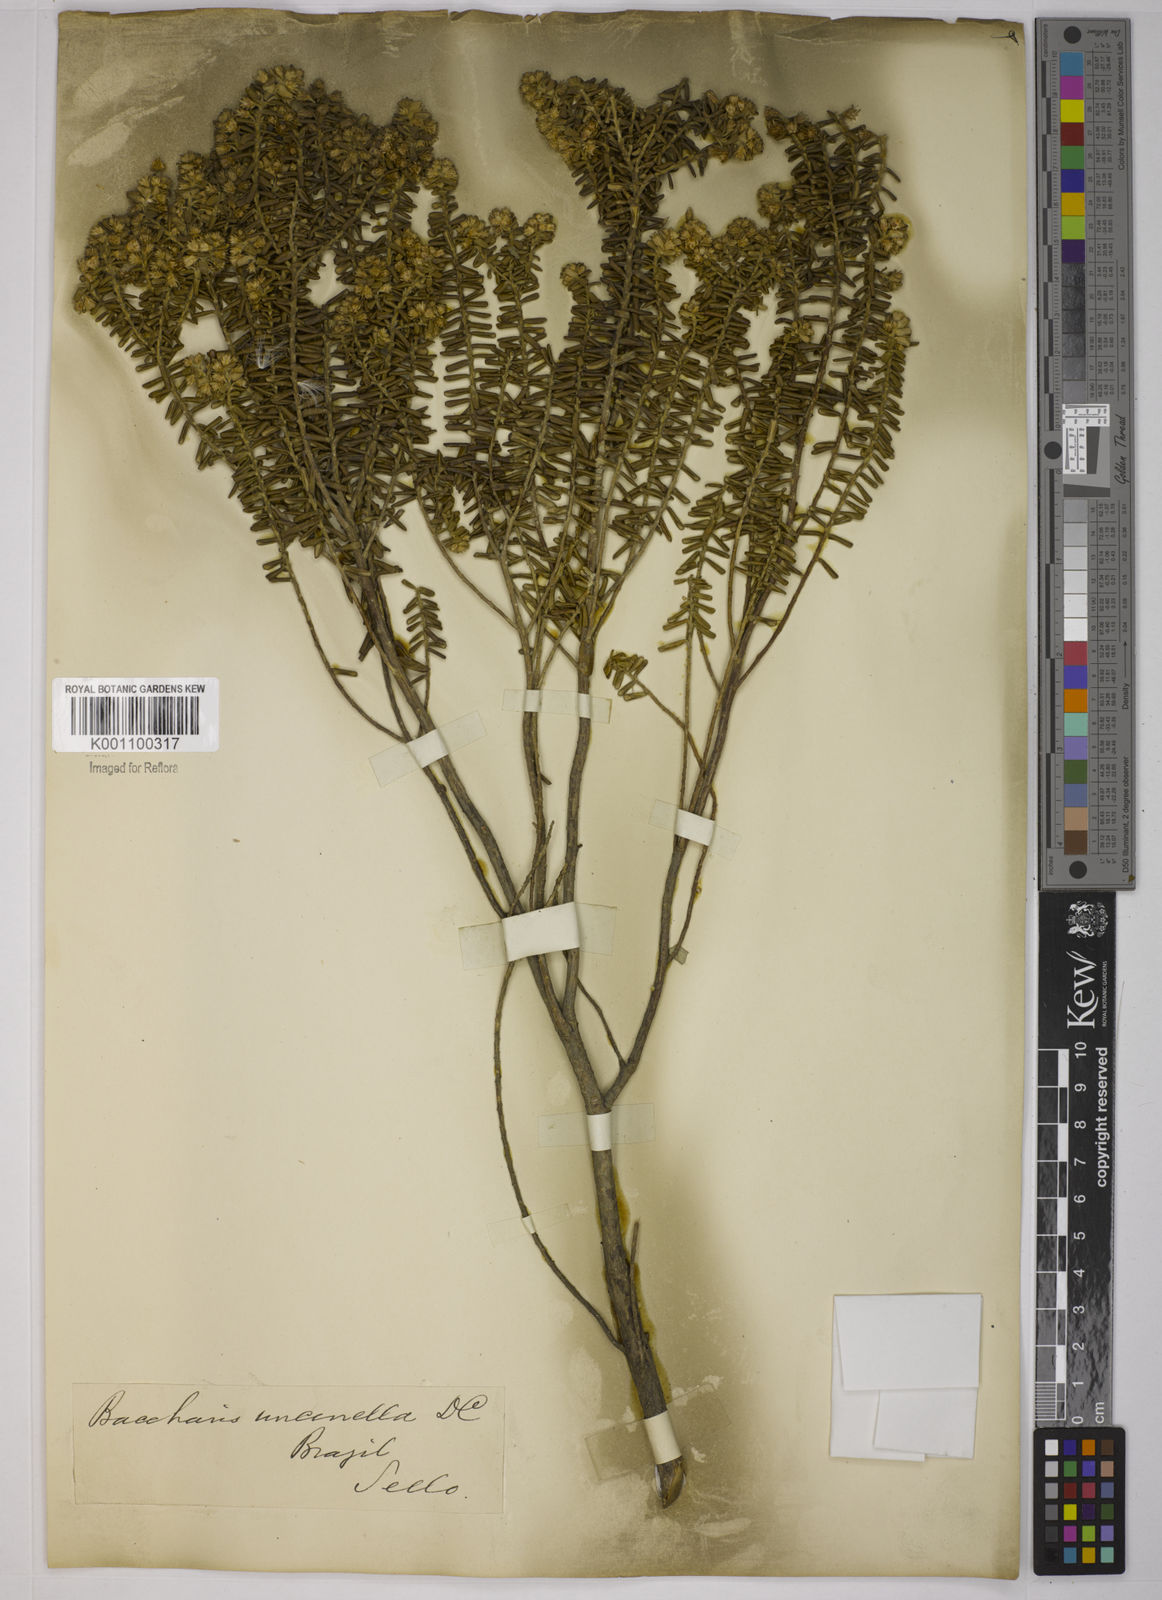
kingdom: Plantae
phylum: Tracheophyta
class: Magnoliopsida
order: Asterales
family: Asteraceae
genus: Baccharis
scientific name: Baccharis uncinella
